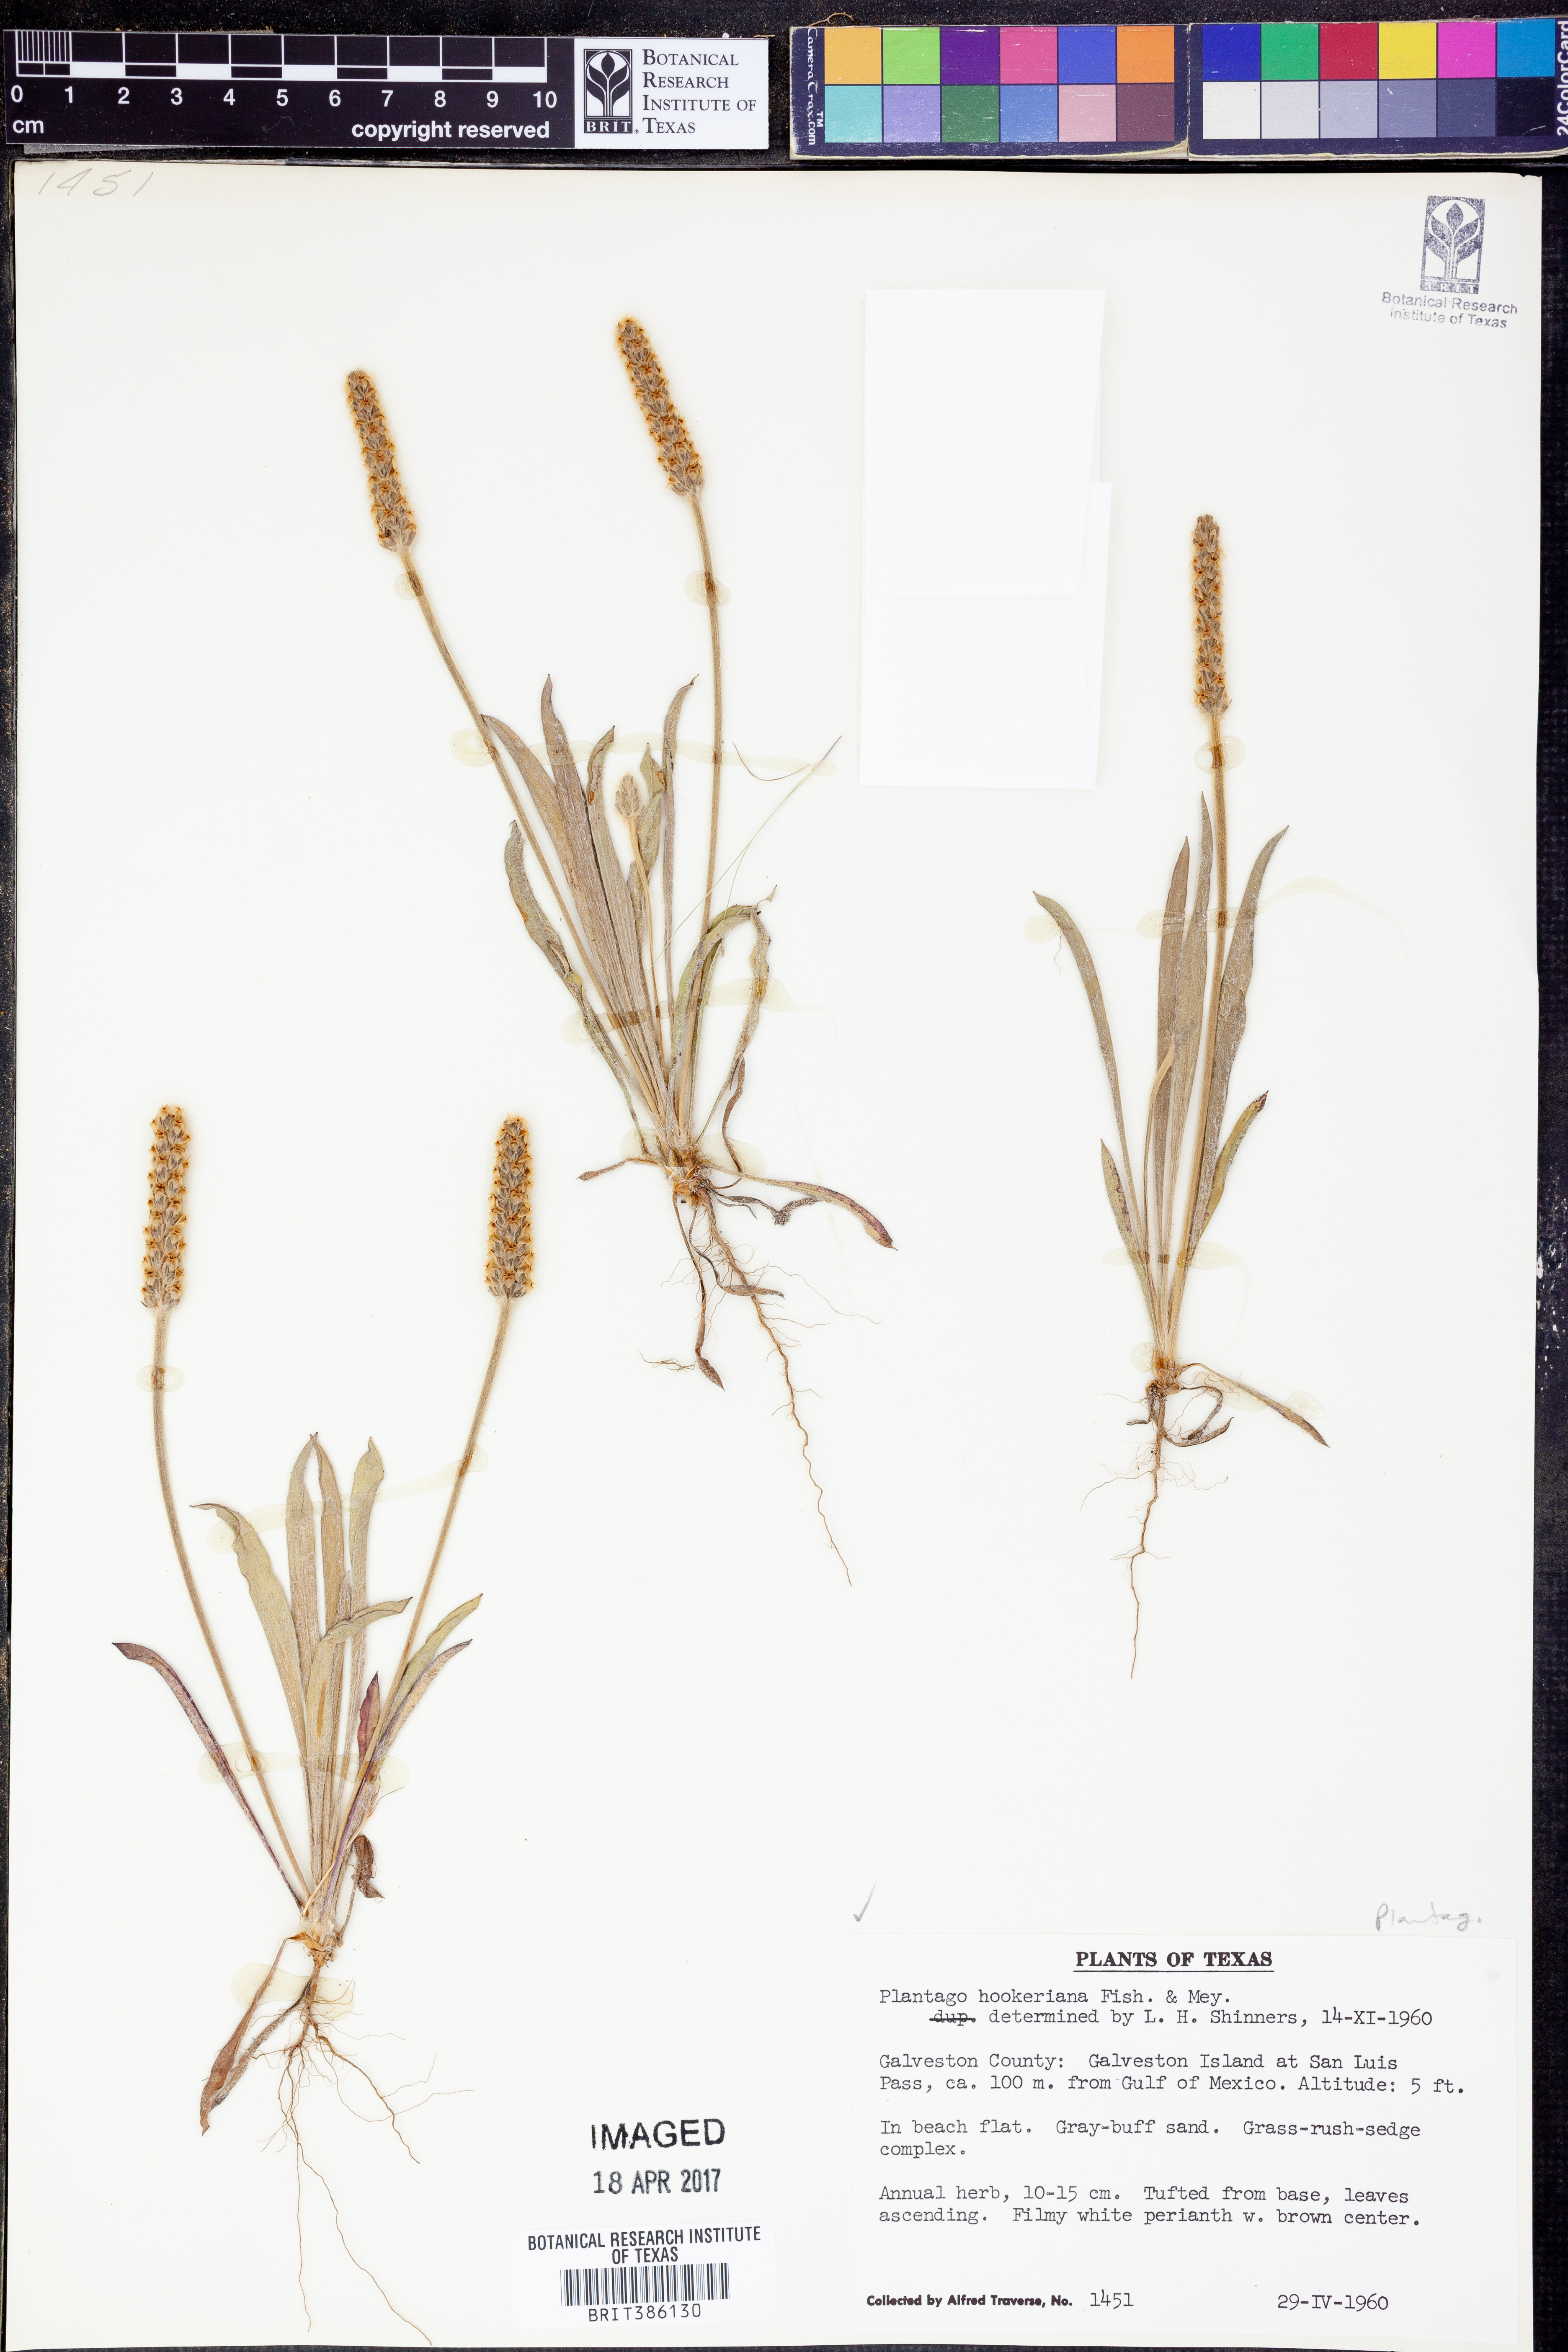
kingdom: Plantae
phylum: Tracheophyta
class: Magnoliopsida
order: Lamiales
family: Plantaginaceae
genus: Plantago
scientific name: Plantago hookeriana
